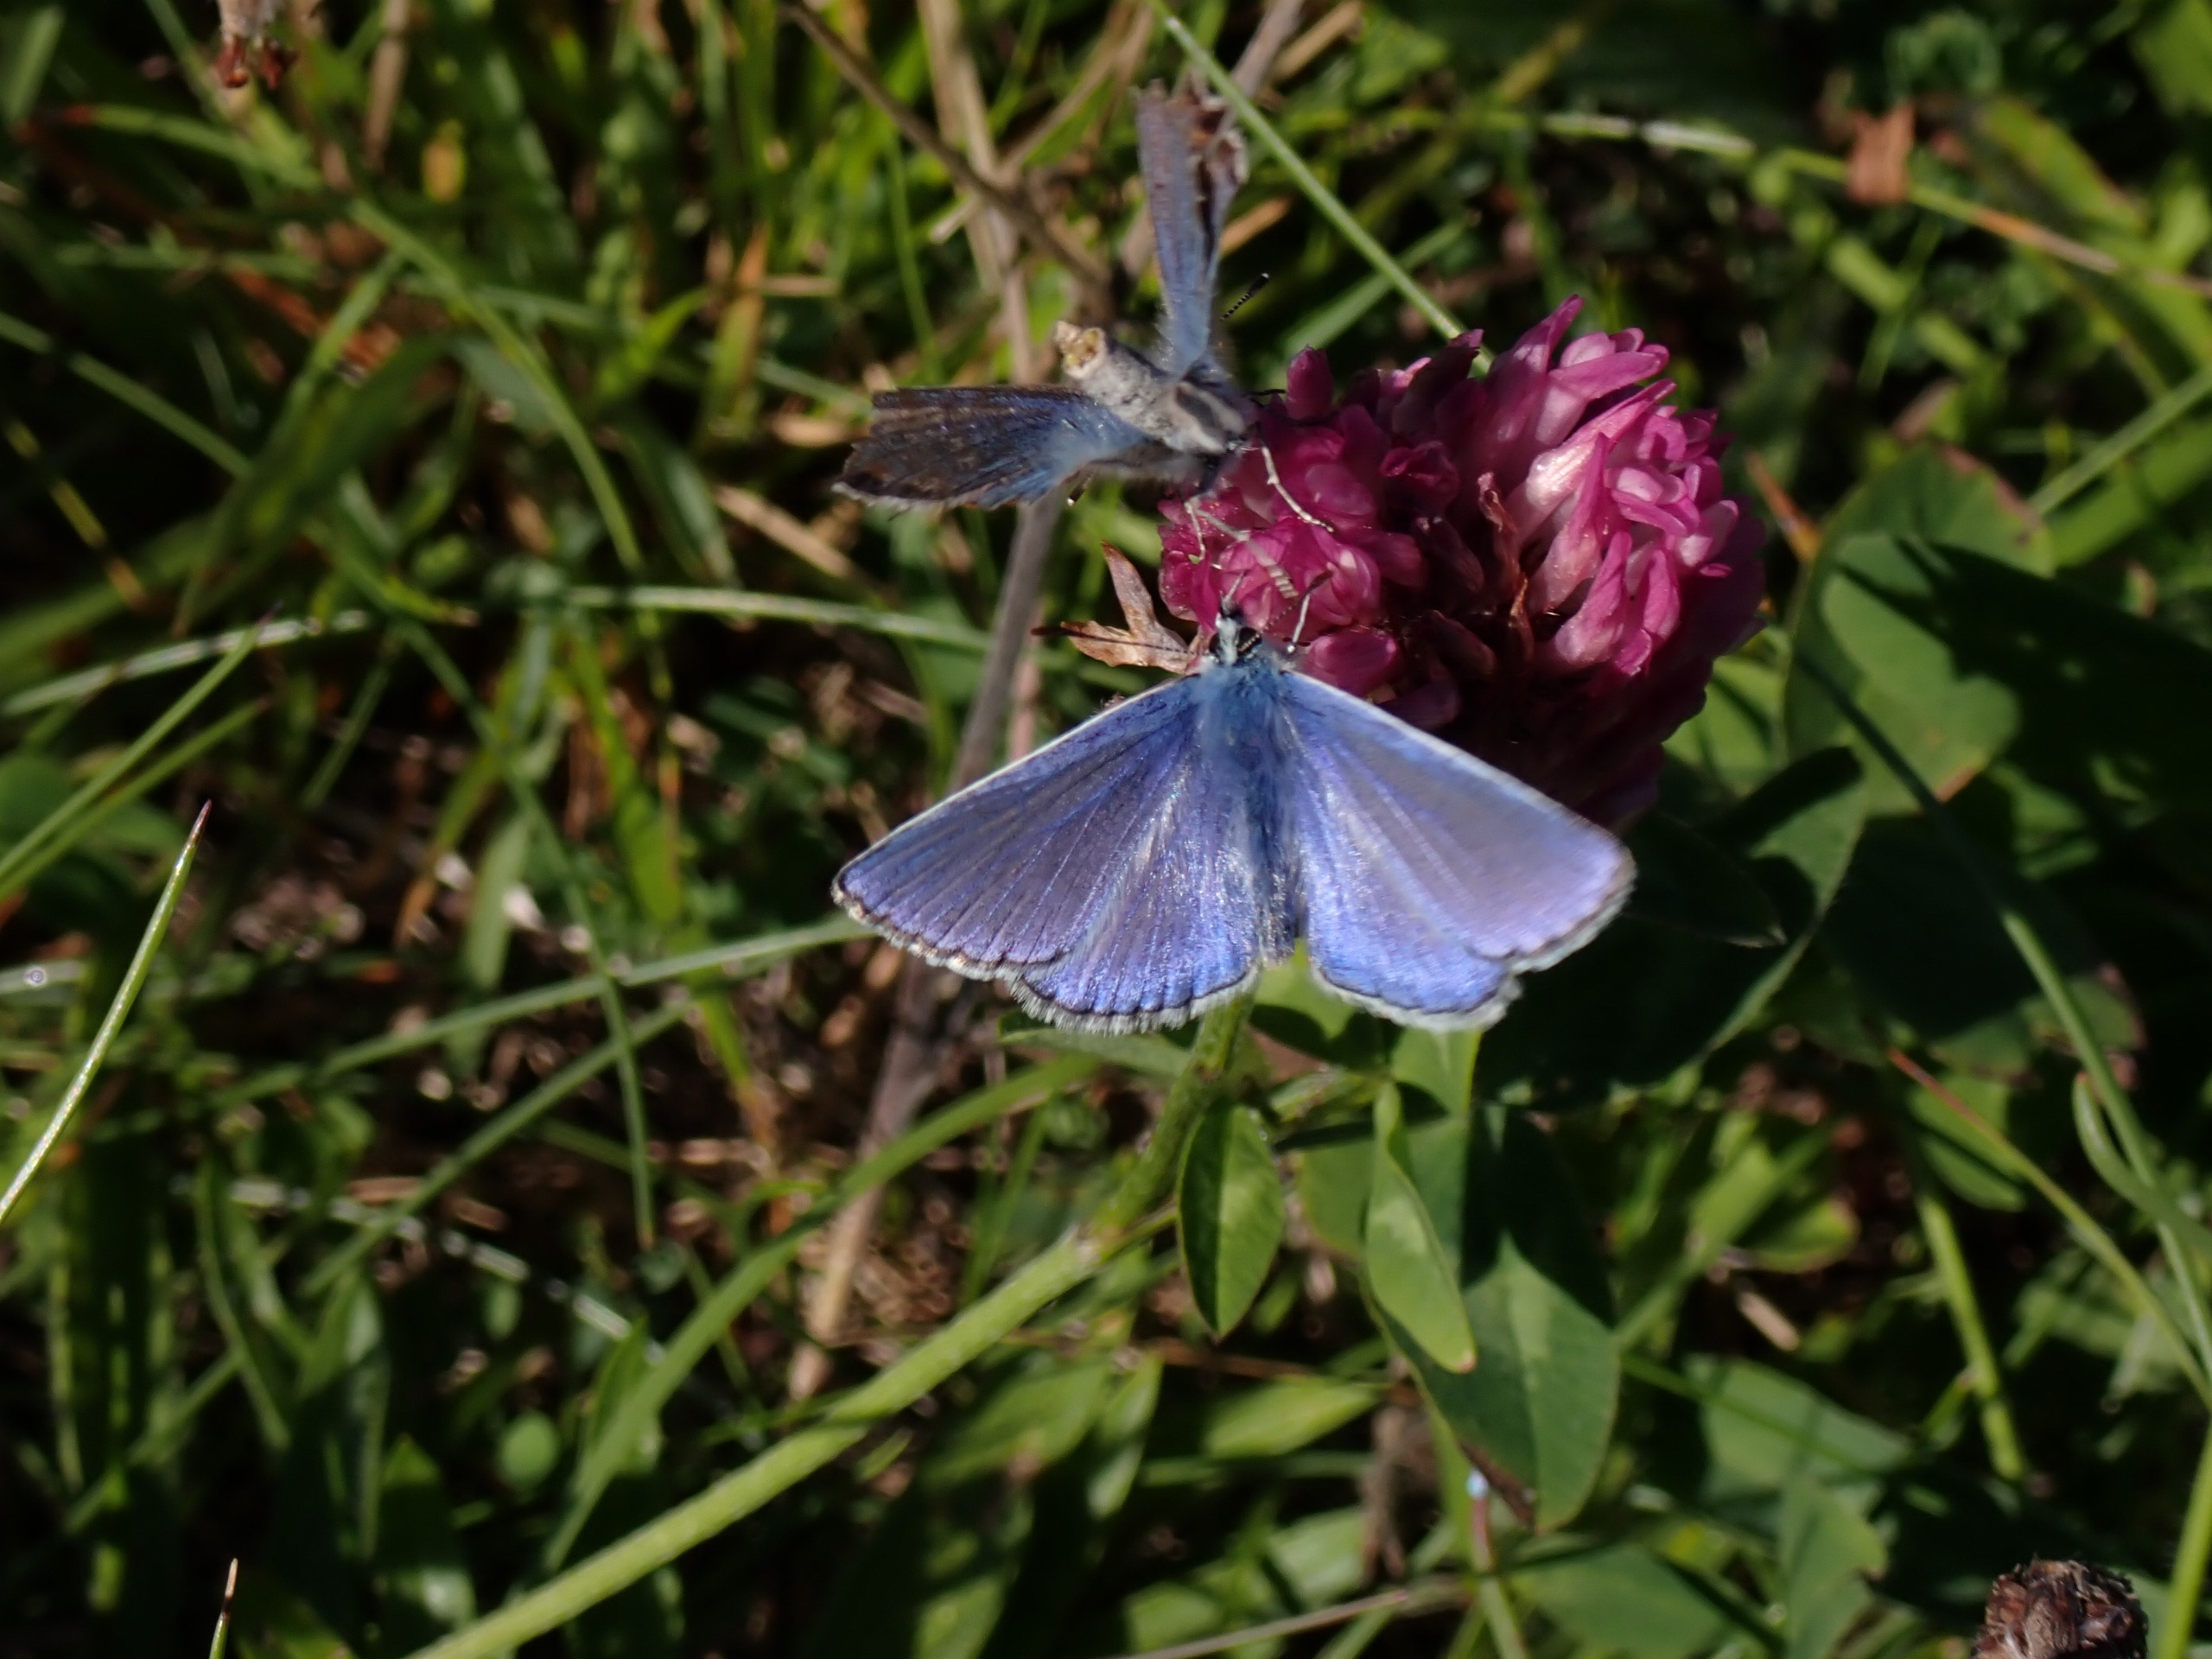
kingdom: Animalia
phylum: Arthropoda
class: Insecta
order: Lepidoptera
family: Lycaenidae
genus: Polyommatus
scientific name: Polyommatus icarus
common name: Almindelig blåfugl
